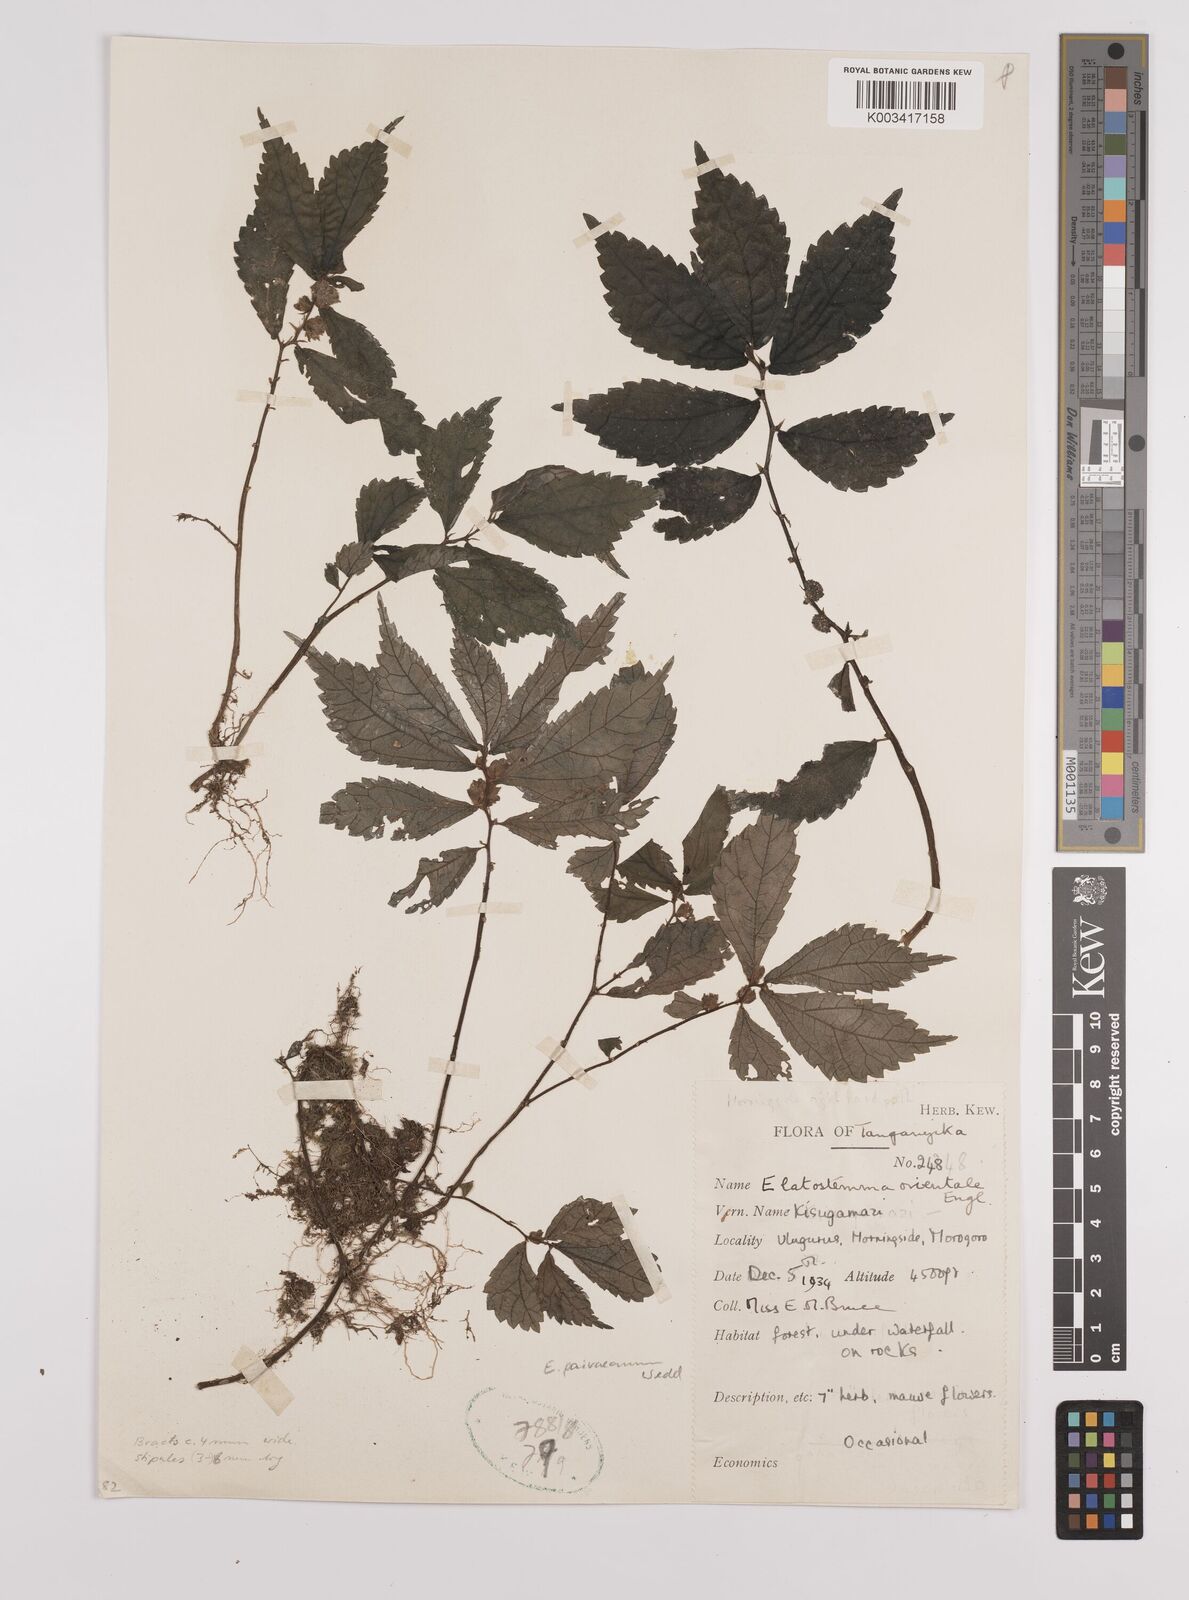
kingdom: Plantae
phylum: Tracheophyta
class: Magnoliopsida
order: Rosales
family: Urticaceae
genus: Elatostema
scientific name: Elatostema paivaeanum
